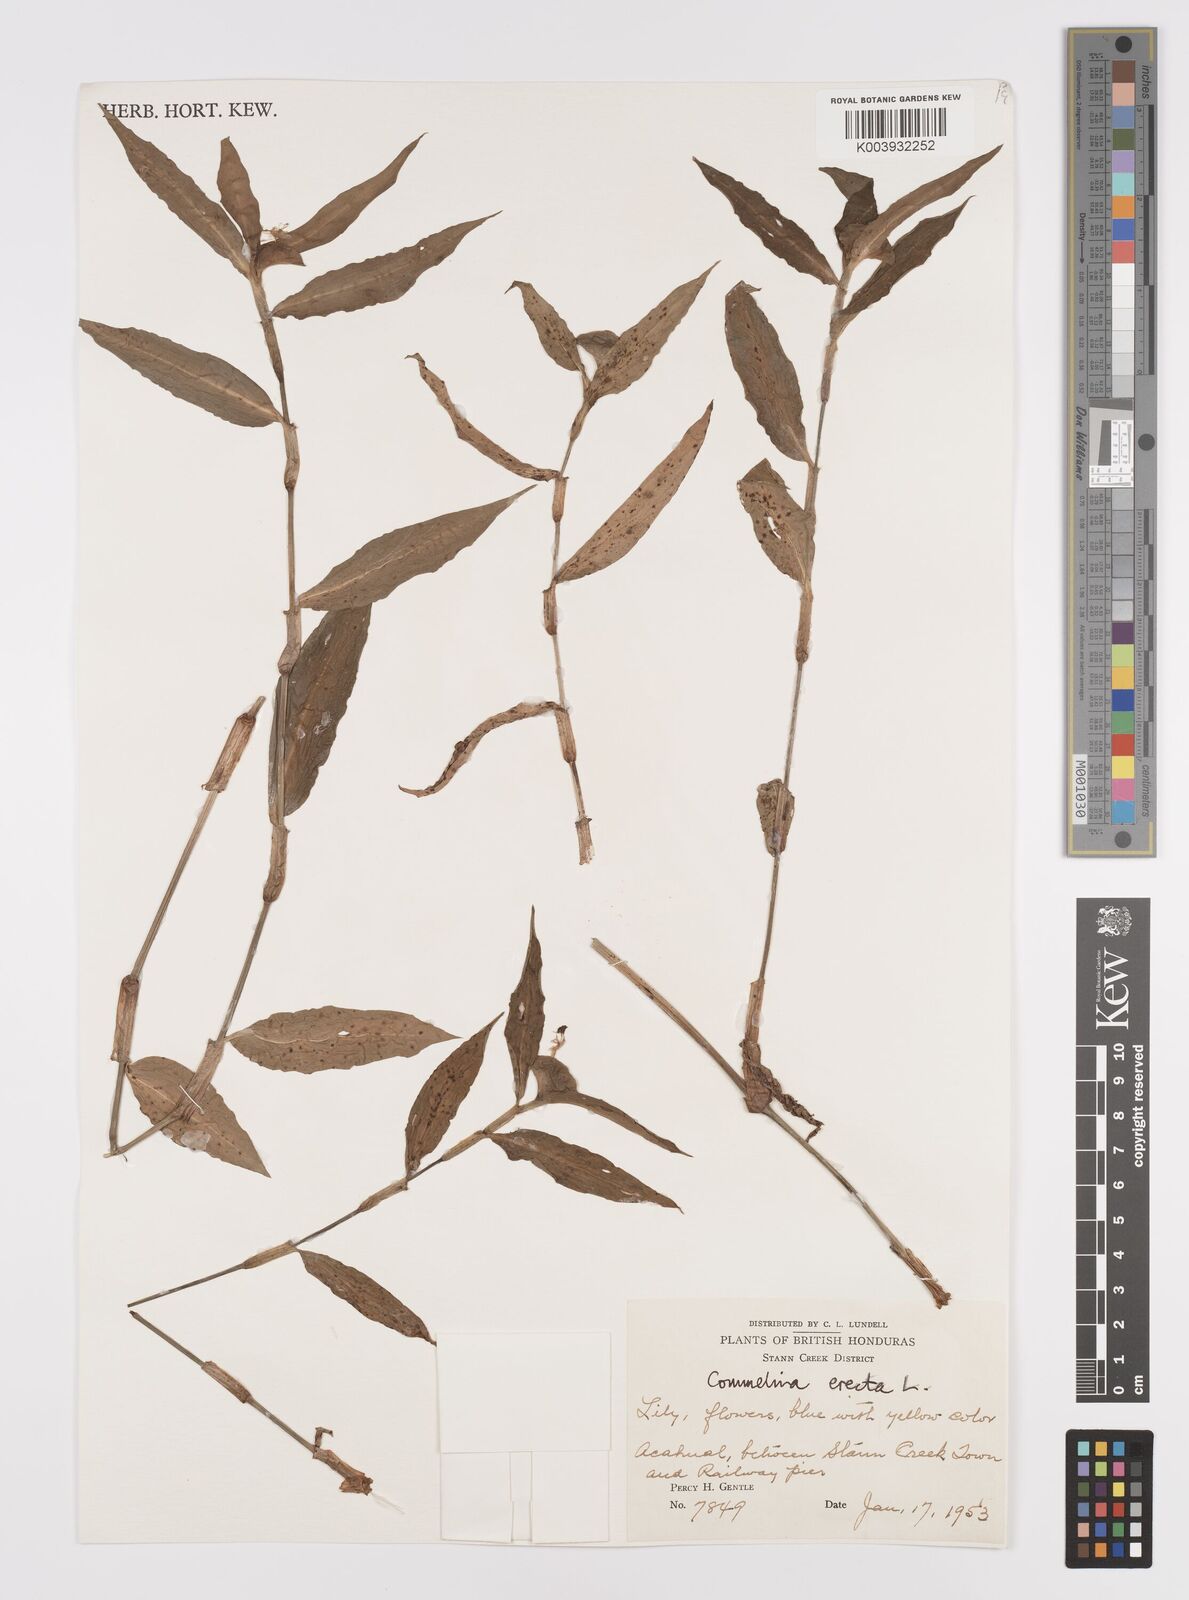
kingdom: Plantae
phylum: Tracheophyta
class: Liliopsida
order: Commelinales
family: Commelinaceae
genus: Commelina
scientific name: Commelina erecta
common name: Blousel blommetjie
